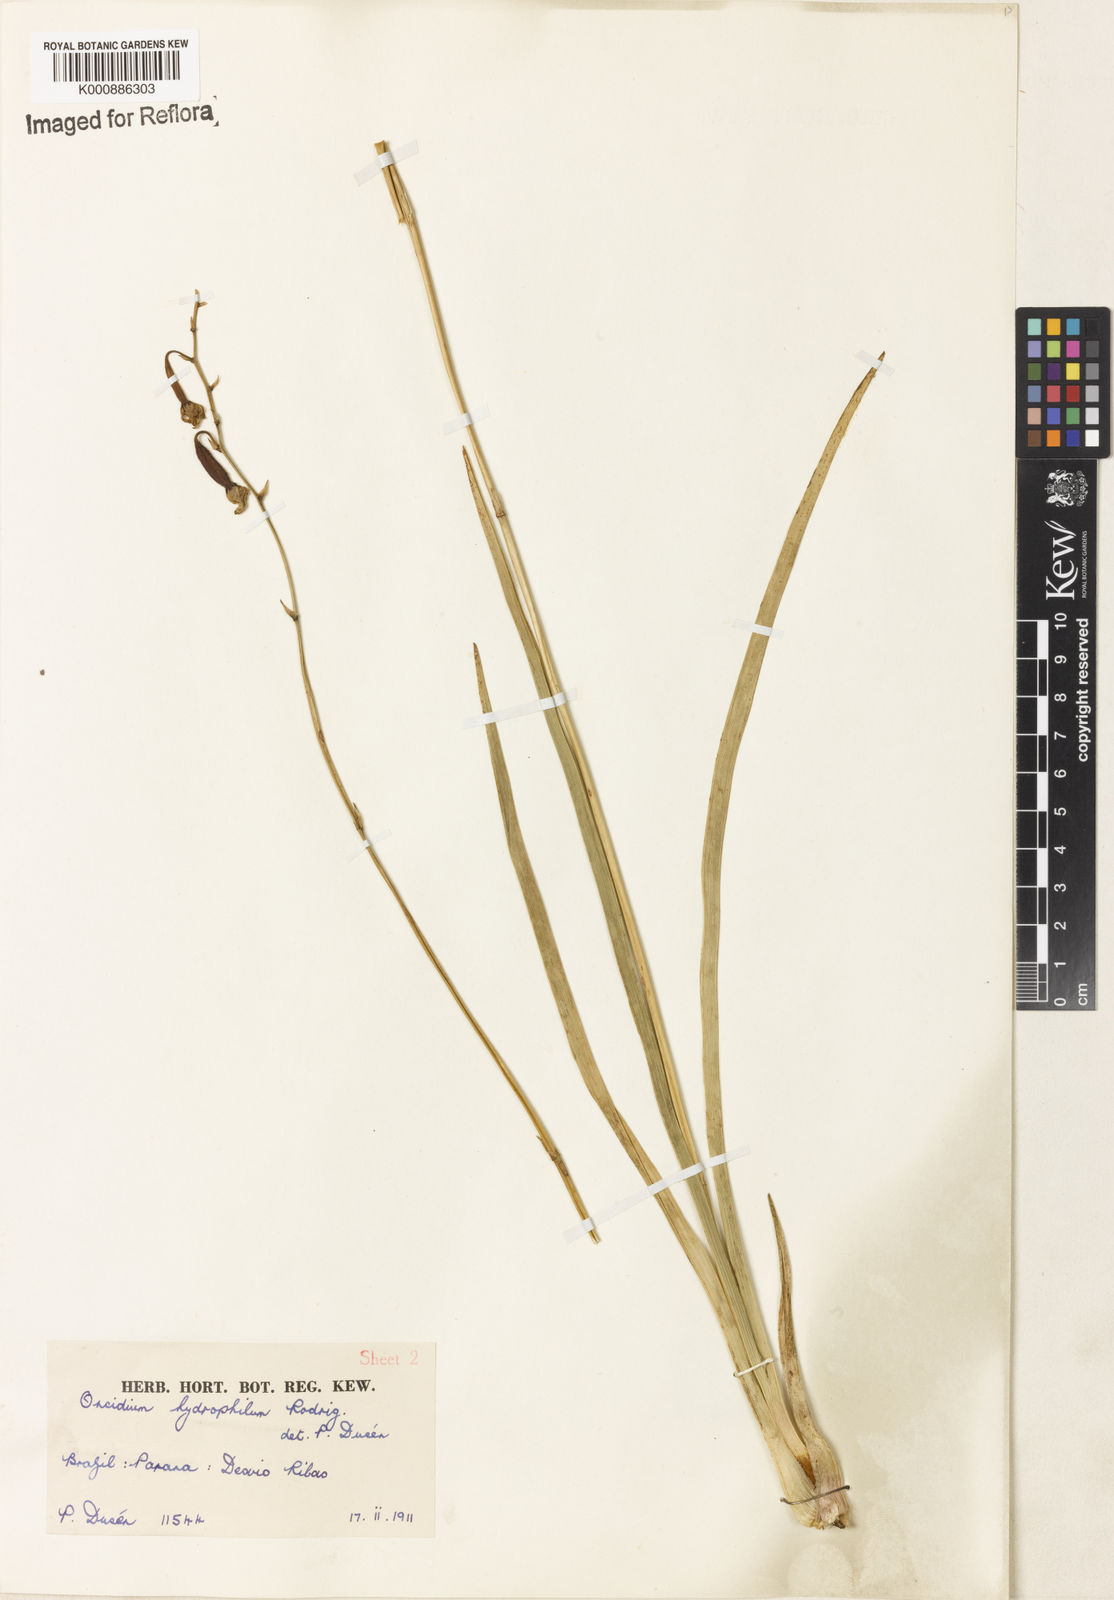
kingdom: Plantae
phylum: Tracheophyta
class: Liliopsida
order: Asparagales
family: Orchidaceae
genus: Gomesa
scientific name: Gomesa hydrophila
